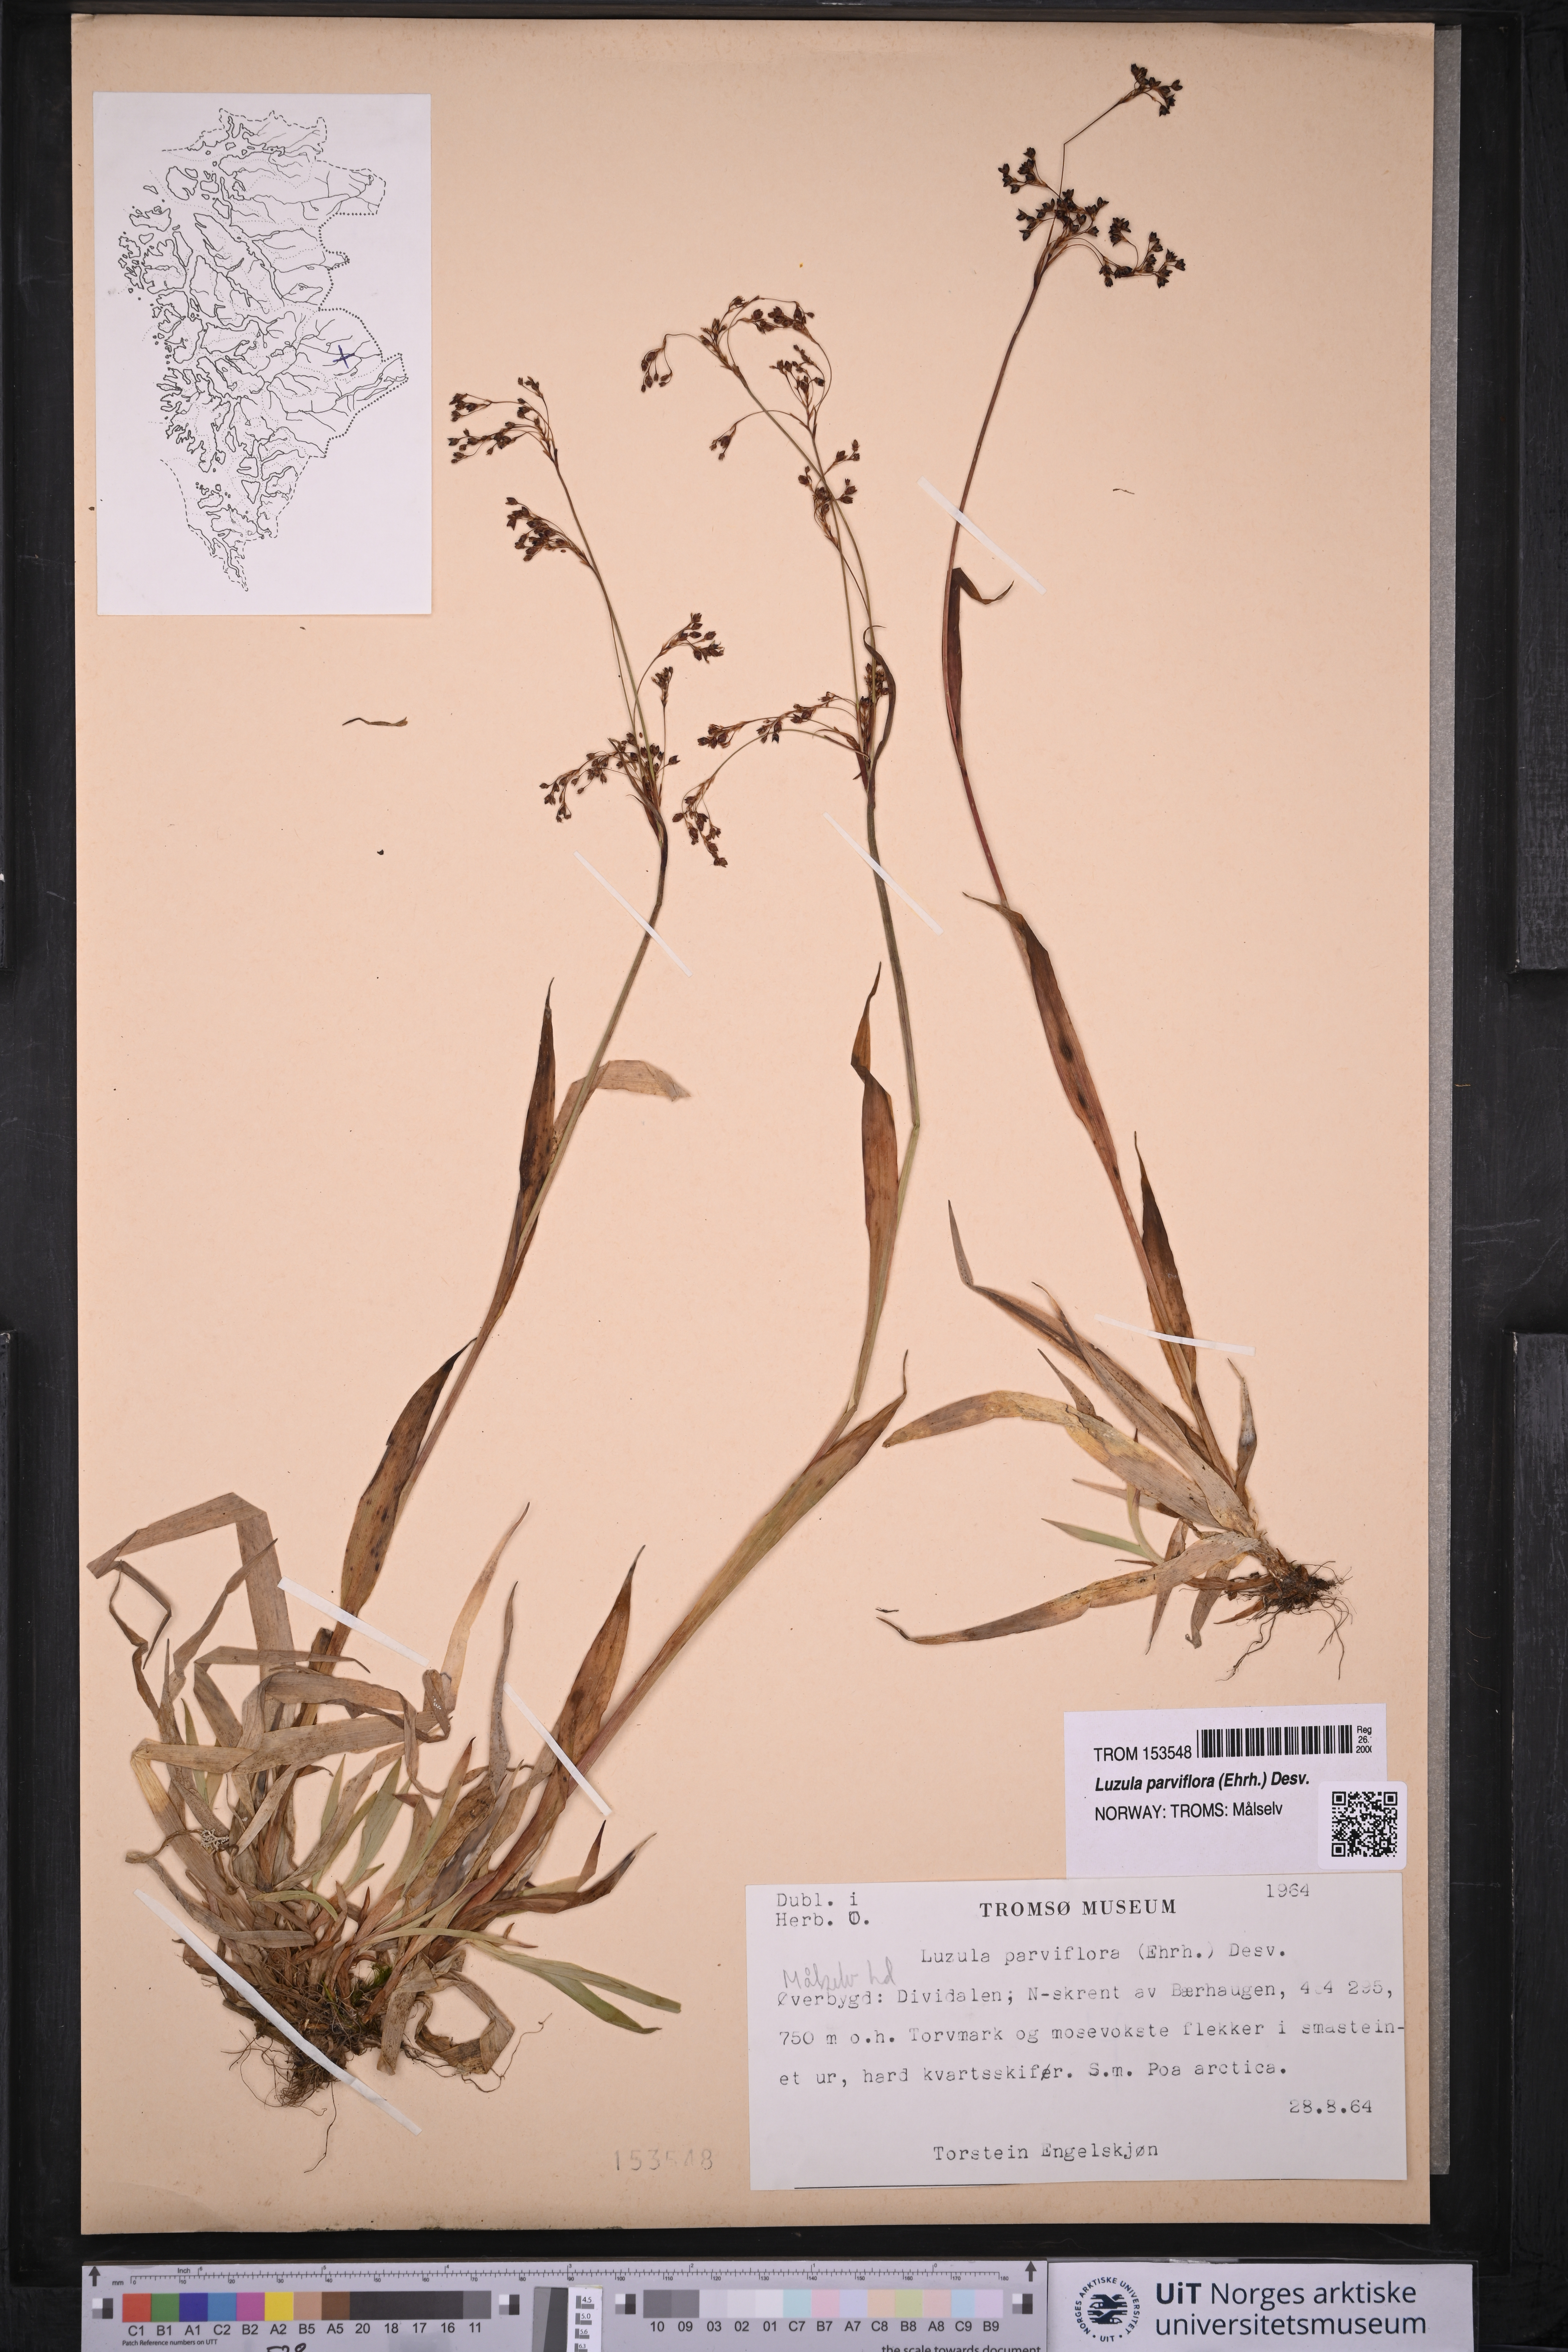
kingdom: Plantae
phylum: Tracheophyta
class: Liliopsida
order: Poales
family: Juncaceae
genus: Luzula
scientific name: Luzula parviflora
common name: Millet woodrush
